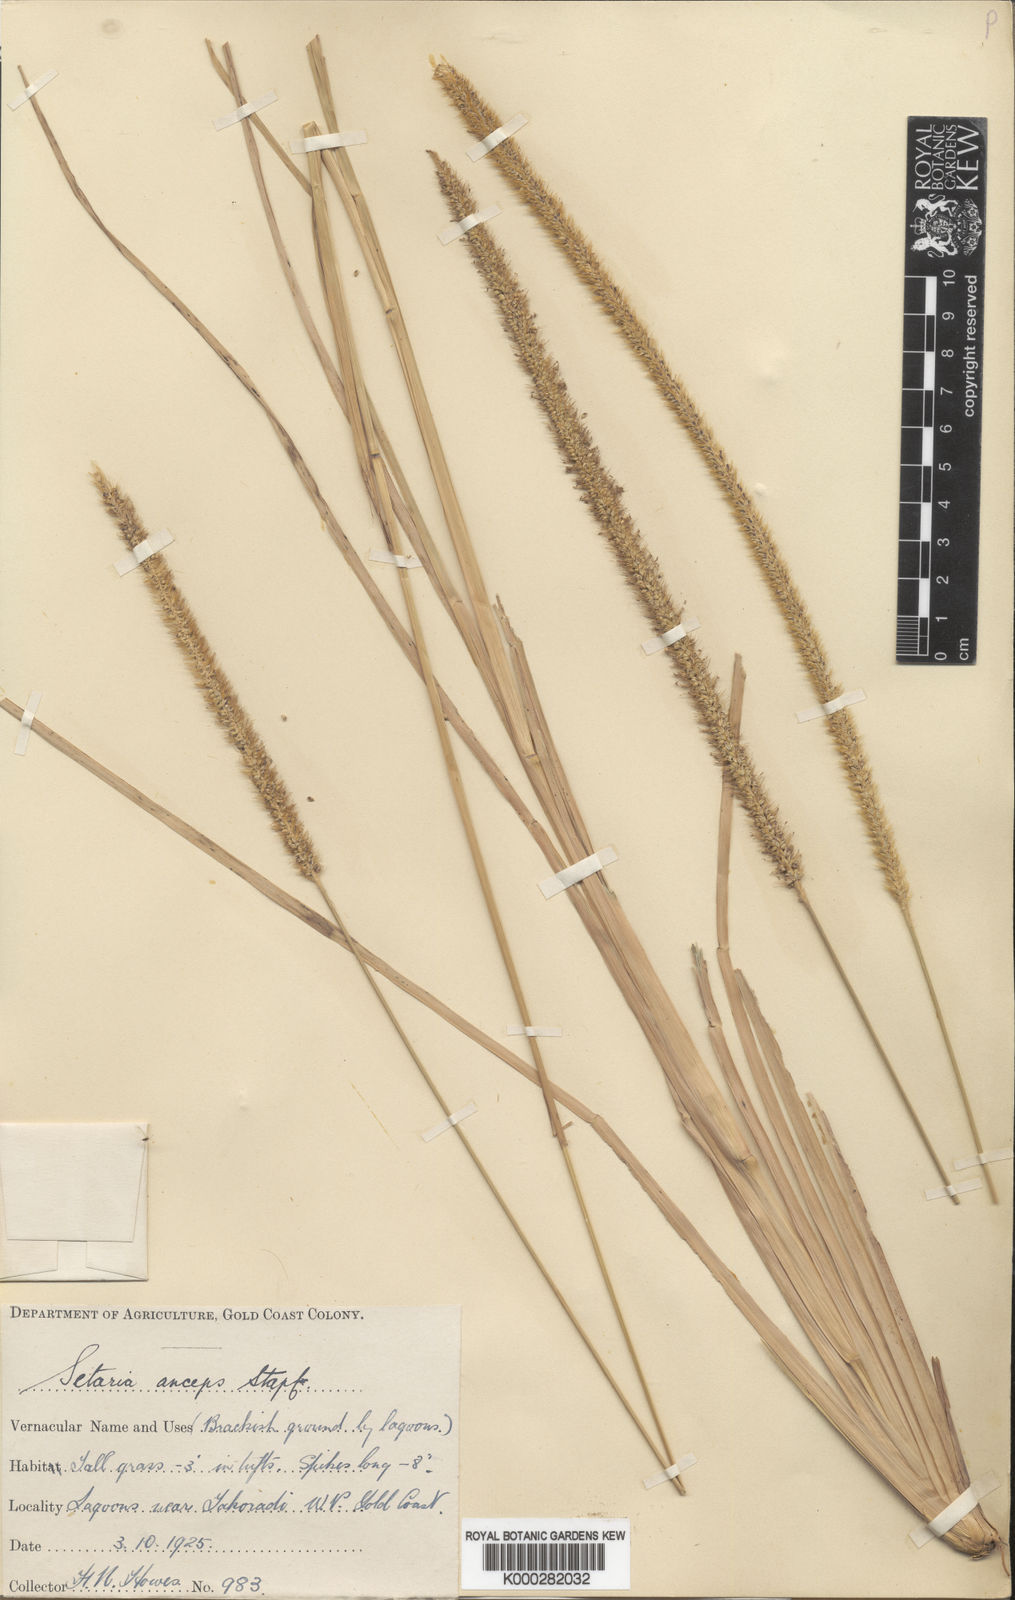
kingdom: Plantae
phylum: Tracheophyta
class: Liliopsida
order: Poales
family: Poaceae
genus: Setaria
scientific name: Setaria sphacelata
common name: African bristlegrass
